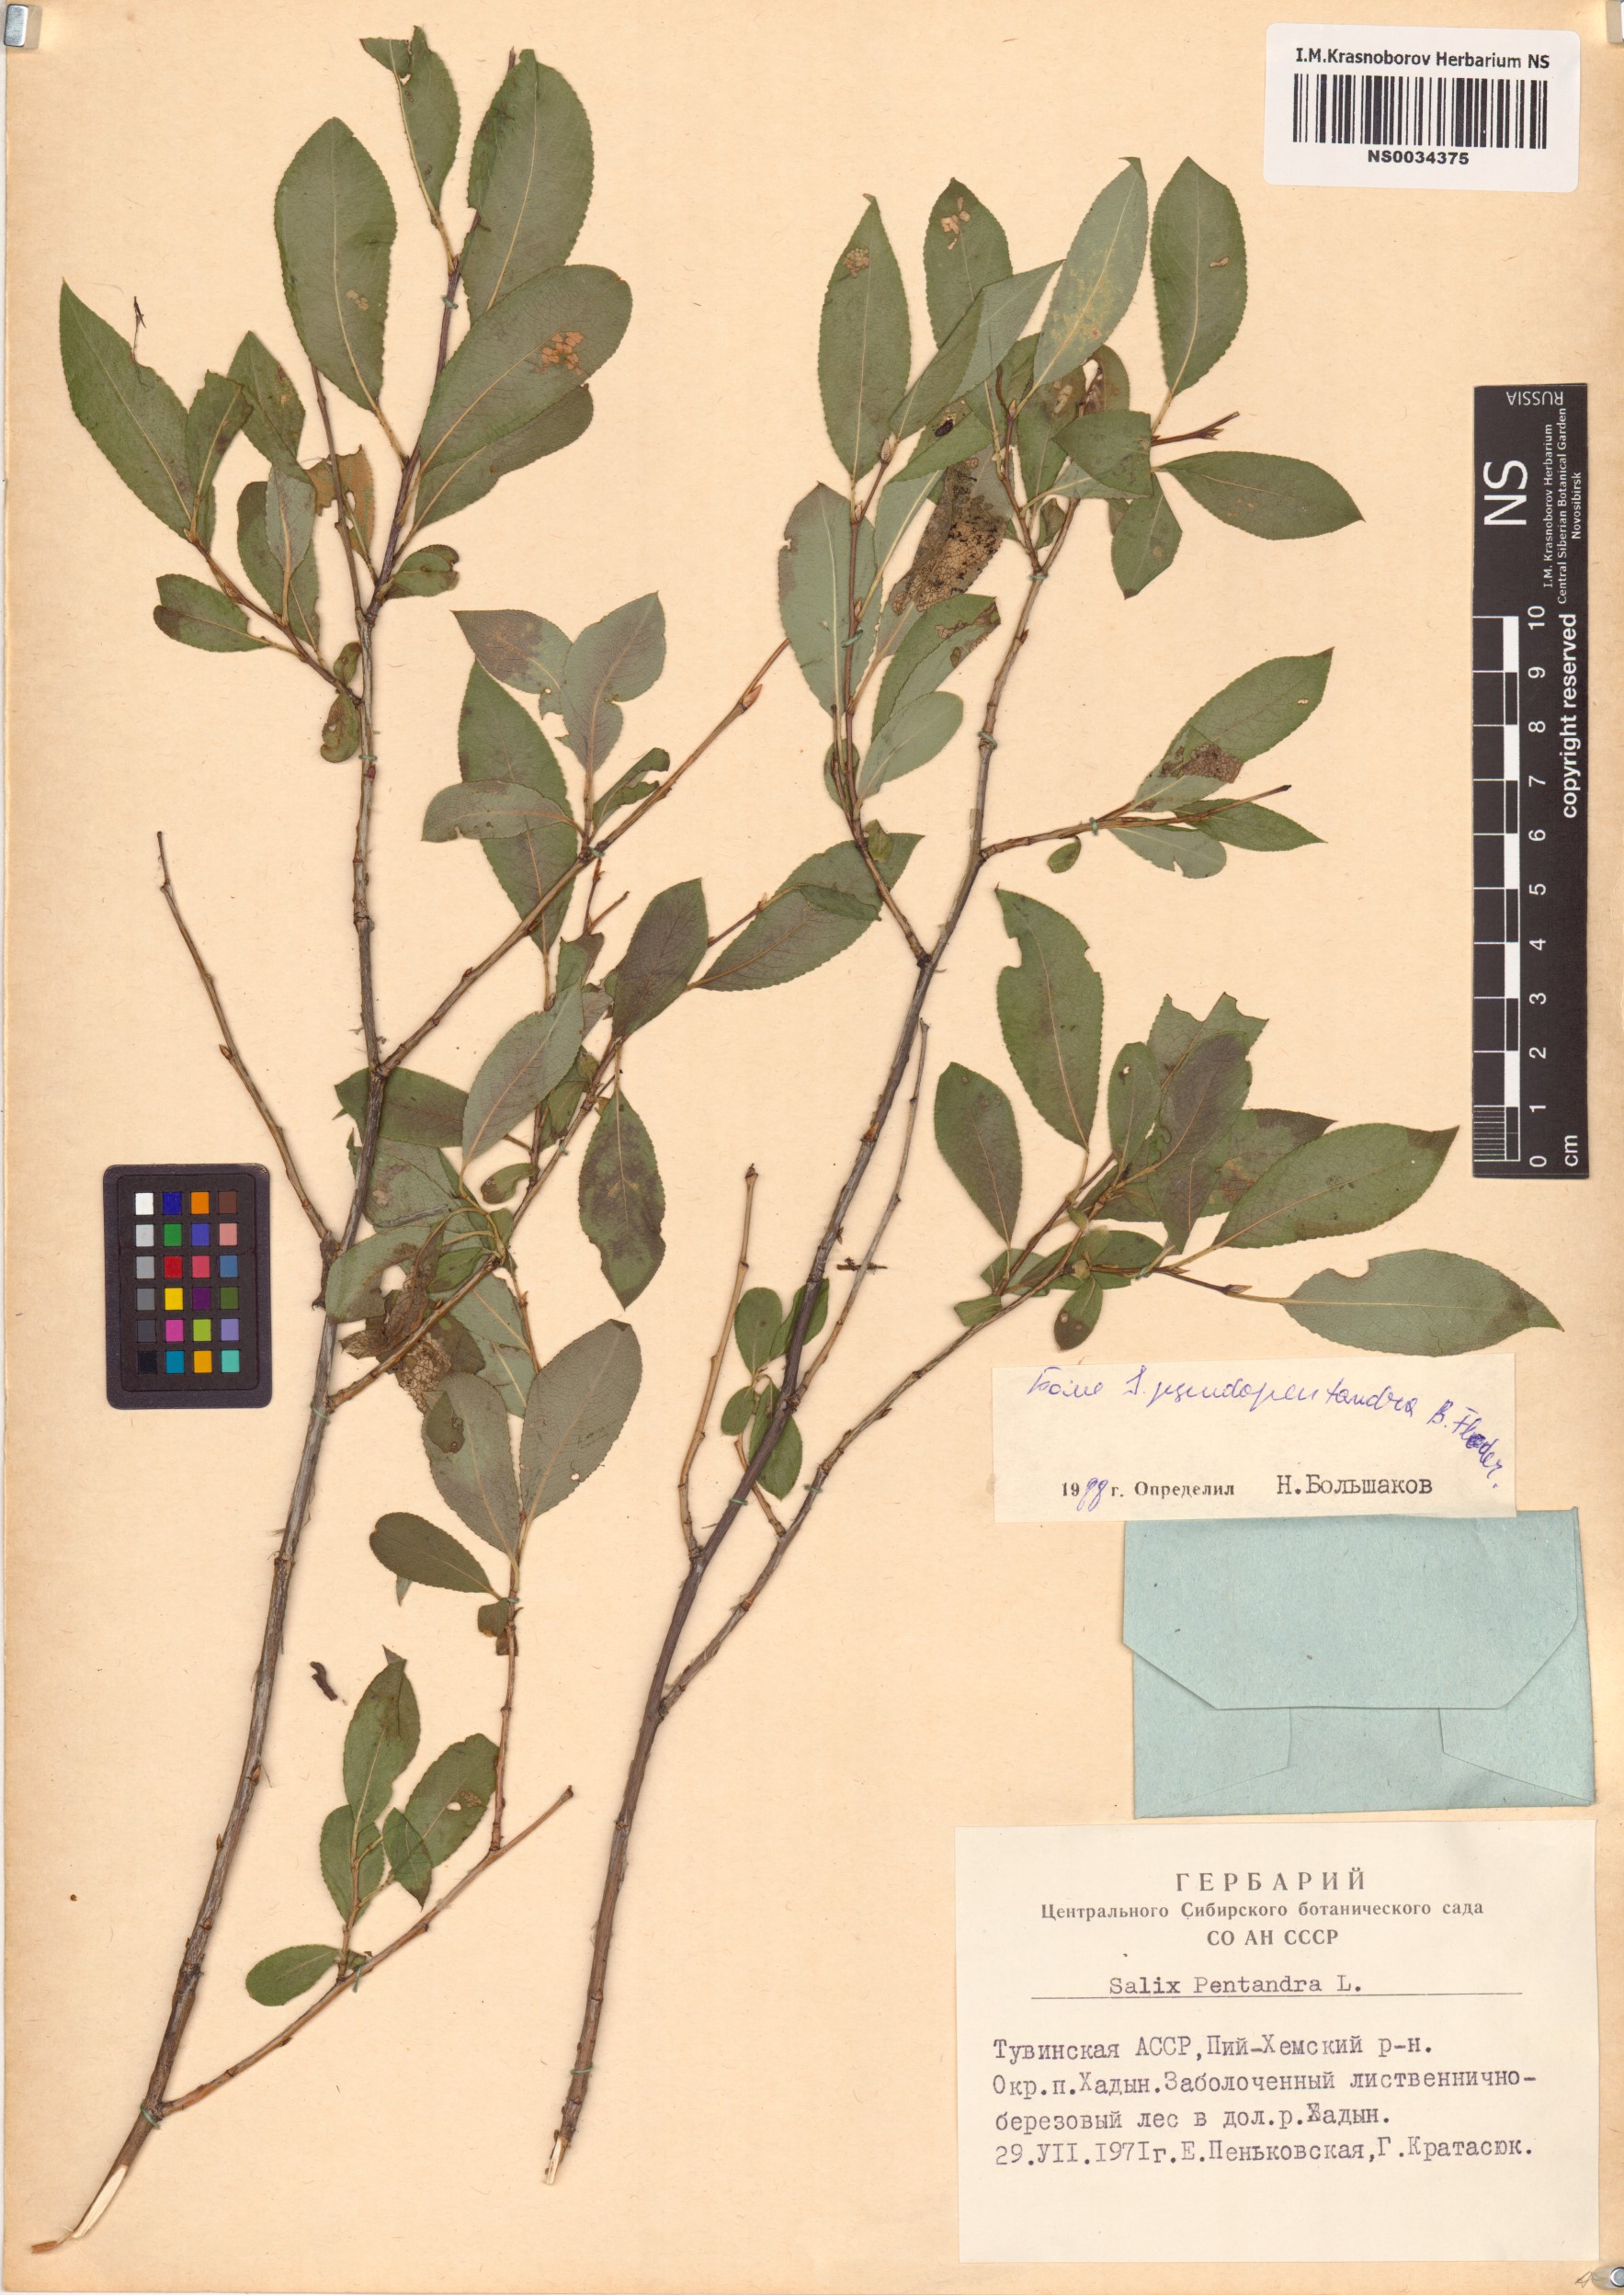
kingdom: Plantae
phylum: Tracheophyta
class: Magnoliopsida
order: Malpighiales
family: Salicaceae
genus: Salix
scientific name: Salix pseudopentandra
